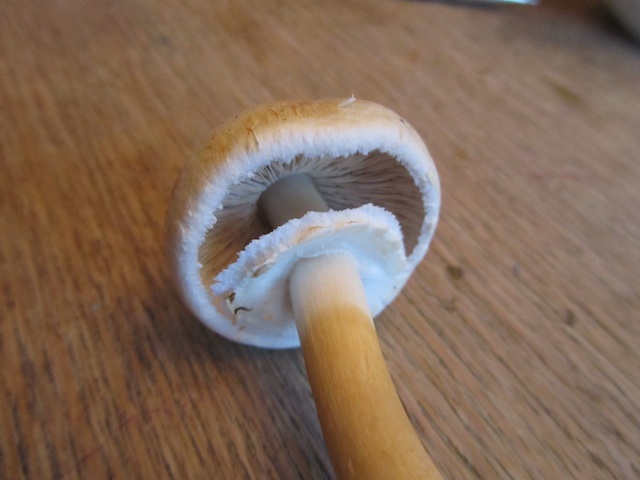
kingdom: Fungi
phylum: Basidiomycota
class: Agaricomycetes
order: Agaricales
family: Agaricaceae
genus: Agaricus
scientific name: Agaricus sylvicola
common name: skiveknoldet champignon
